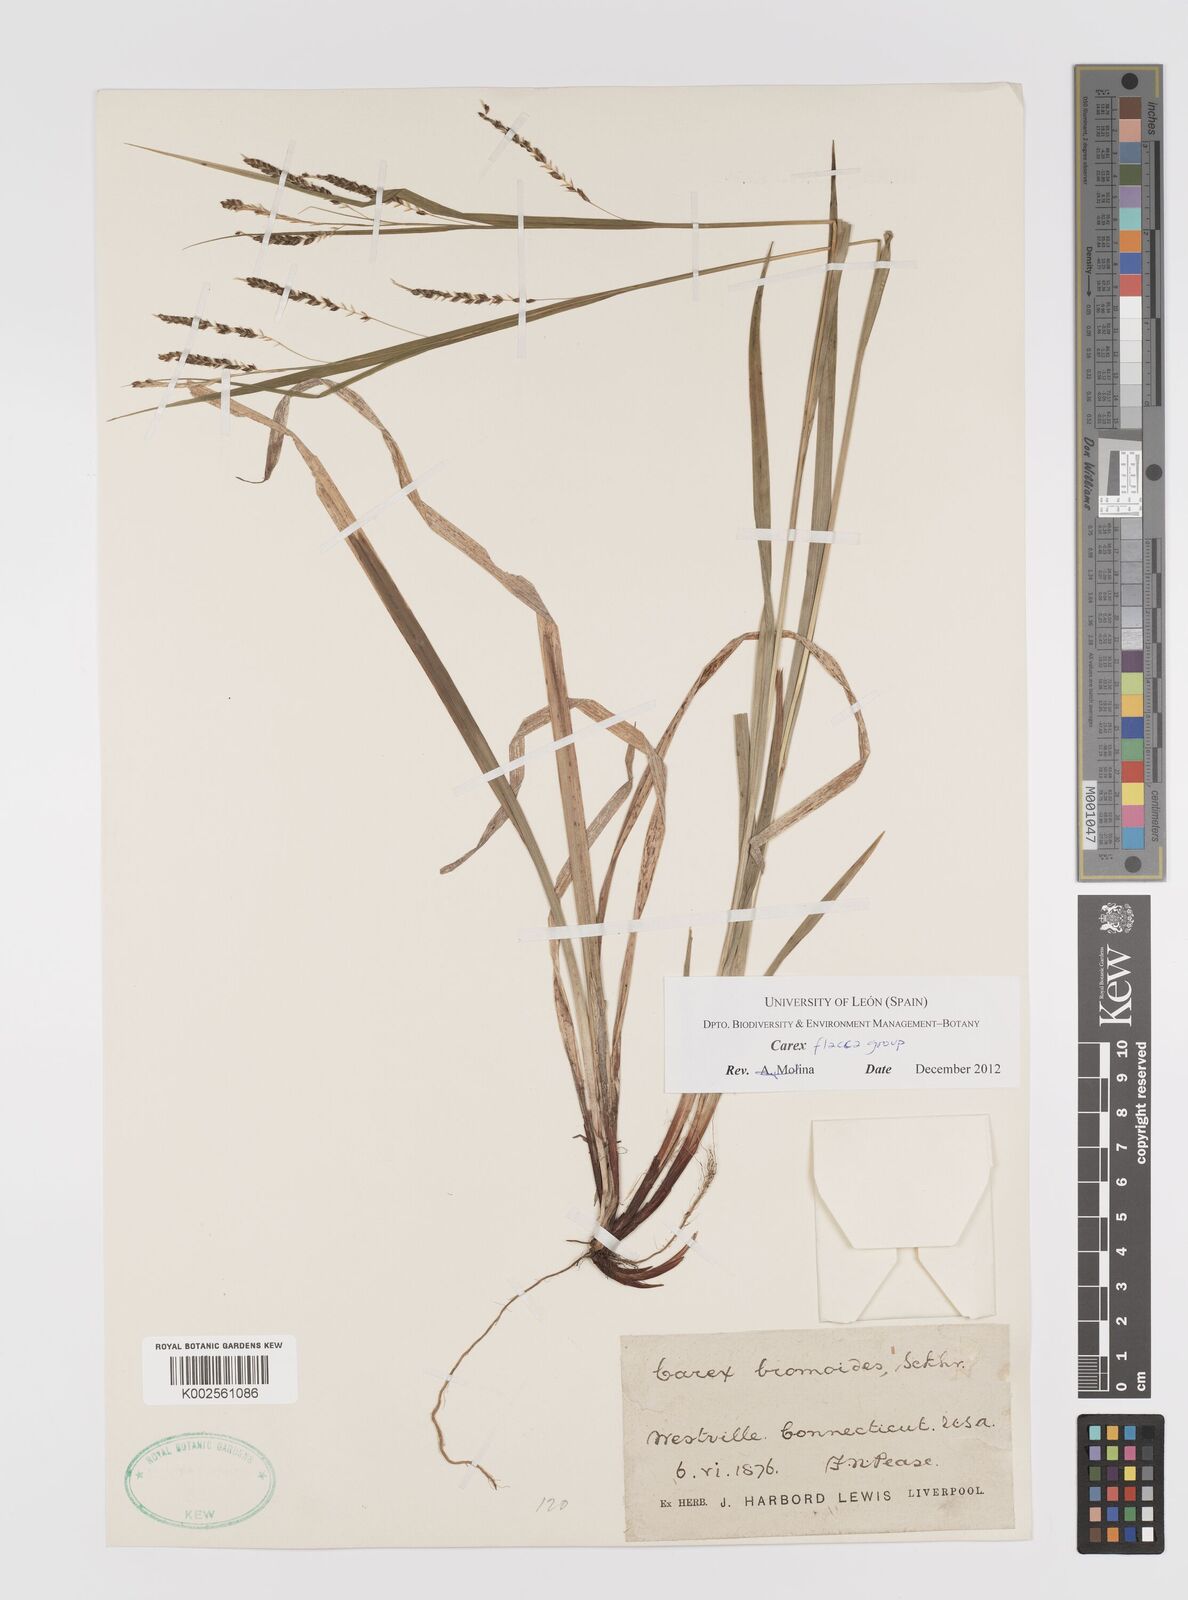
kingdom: Plantae
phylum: Tracheophyta
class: Liliopsida
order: Poales
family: Cyperaceae
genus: Carex
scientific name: Carex flacca
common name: Glaucous sedge
